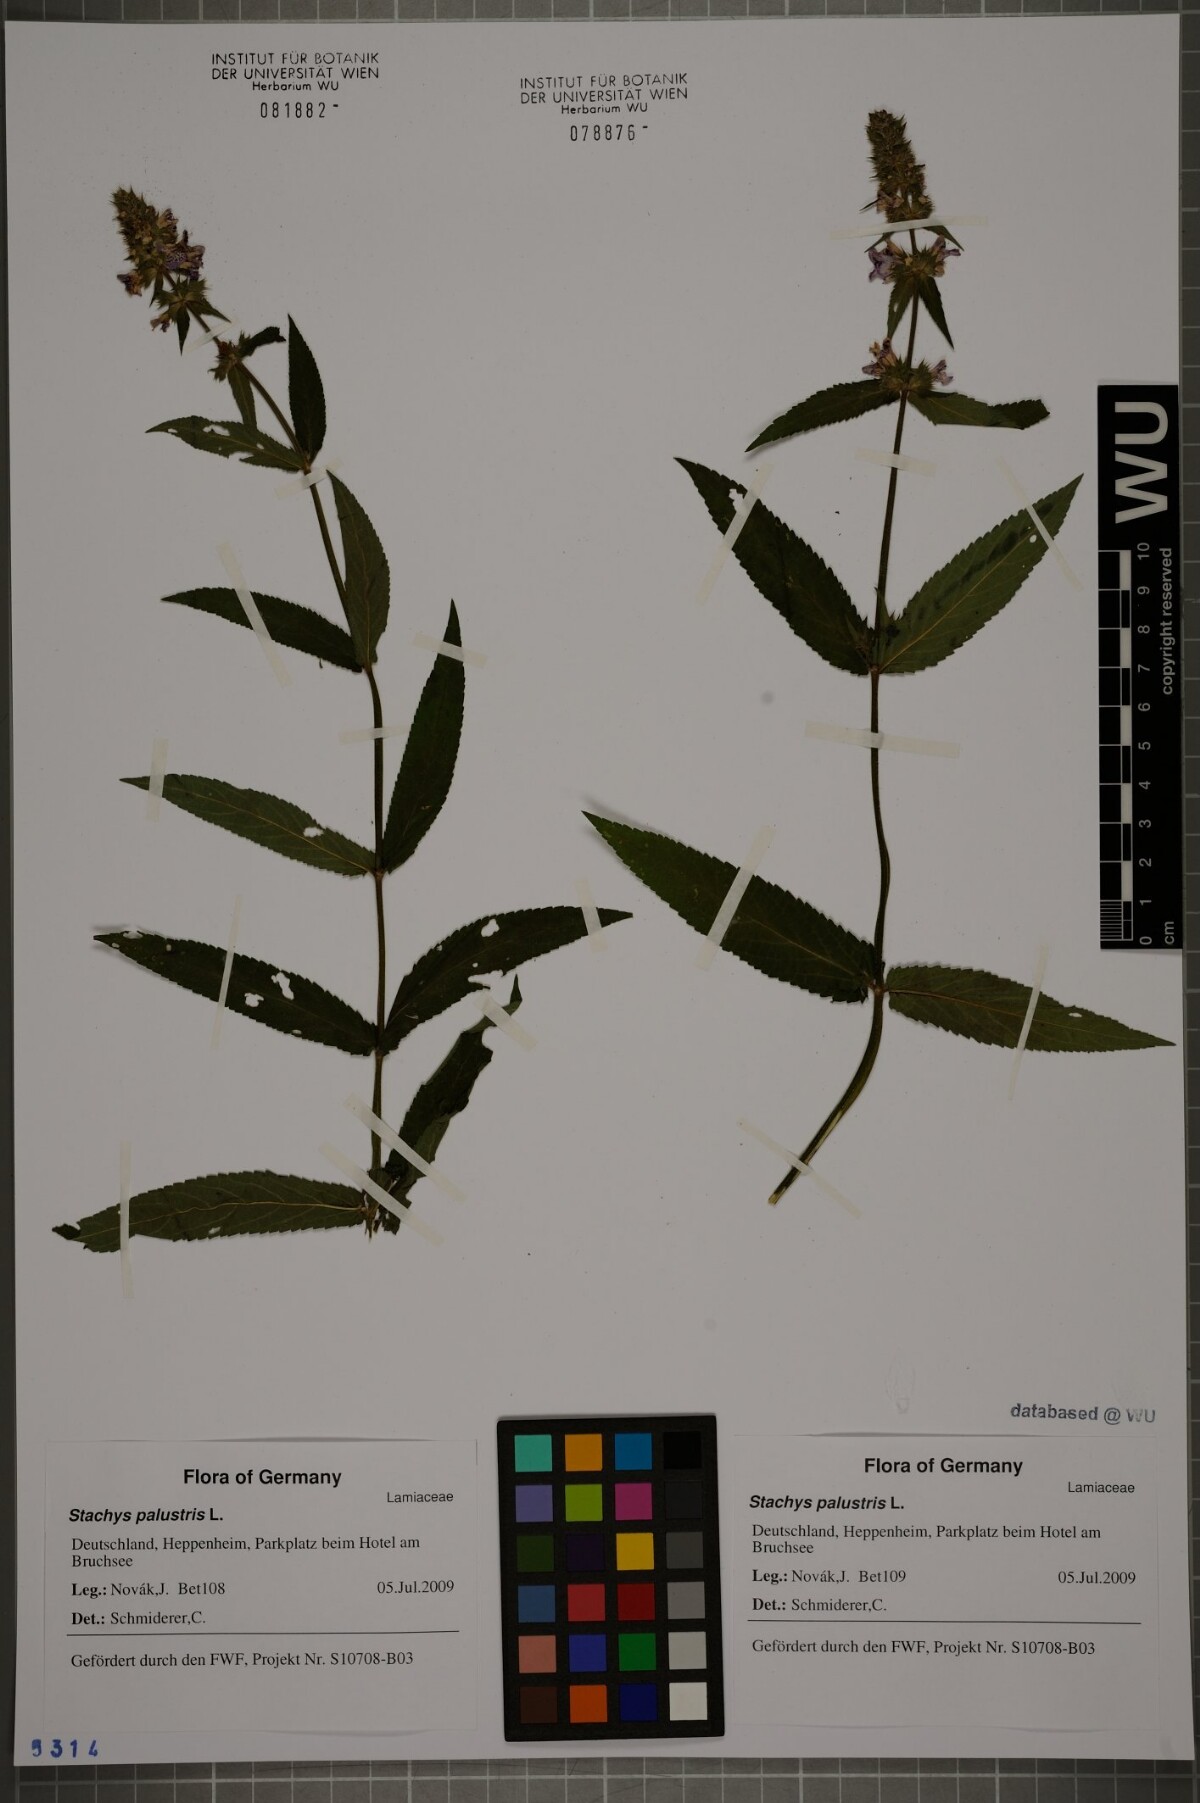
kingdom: Plantae
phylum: Tracheophyta
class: Magnoliopsida
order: Lamiales
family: Lamiaceae
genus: Stachys
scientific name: Stachys palustris
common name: Marsh woundwort
